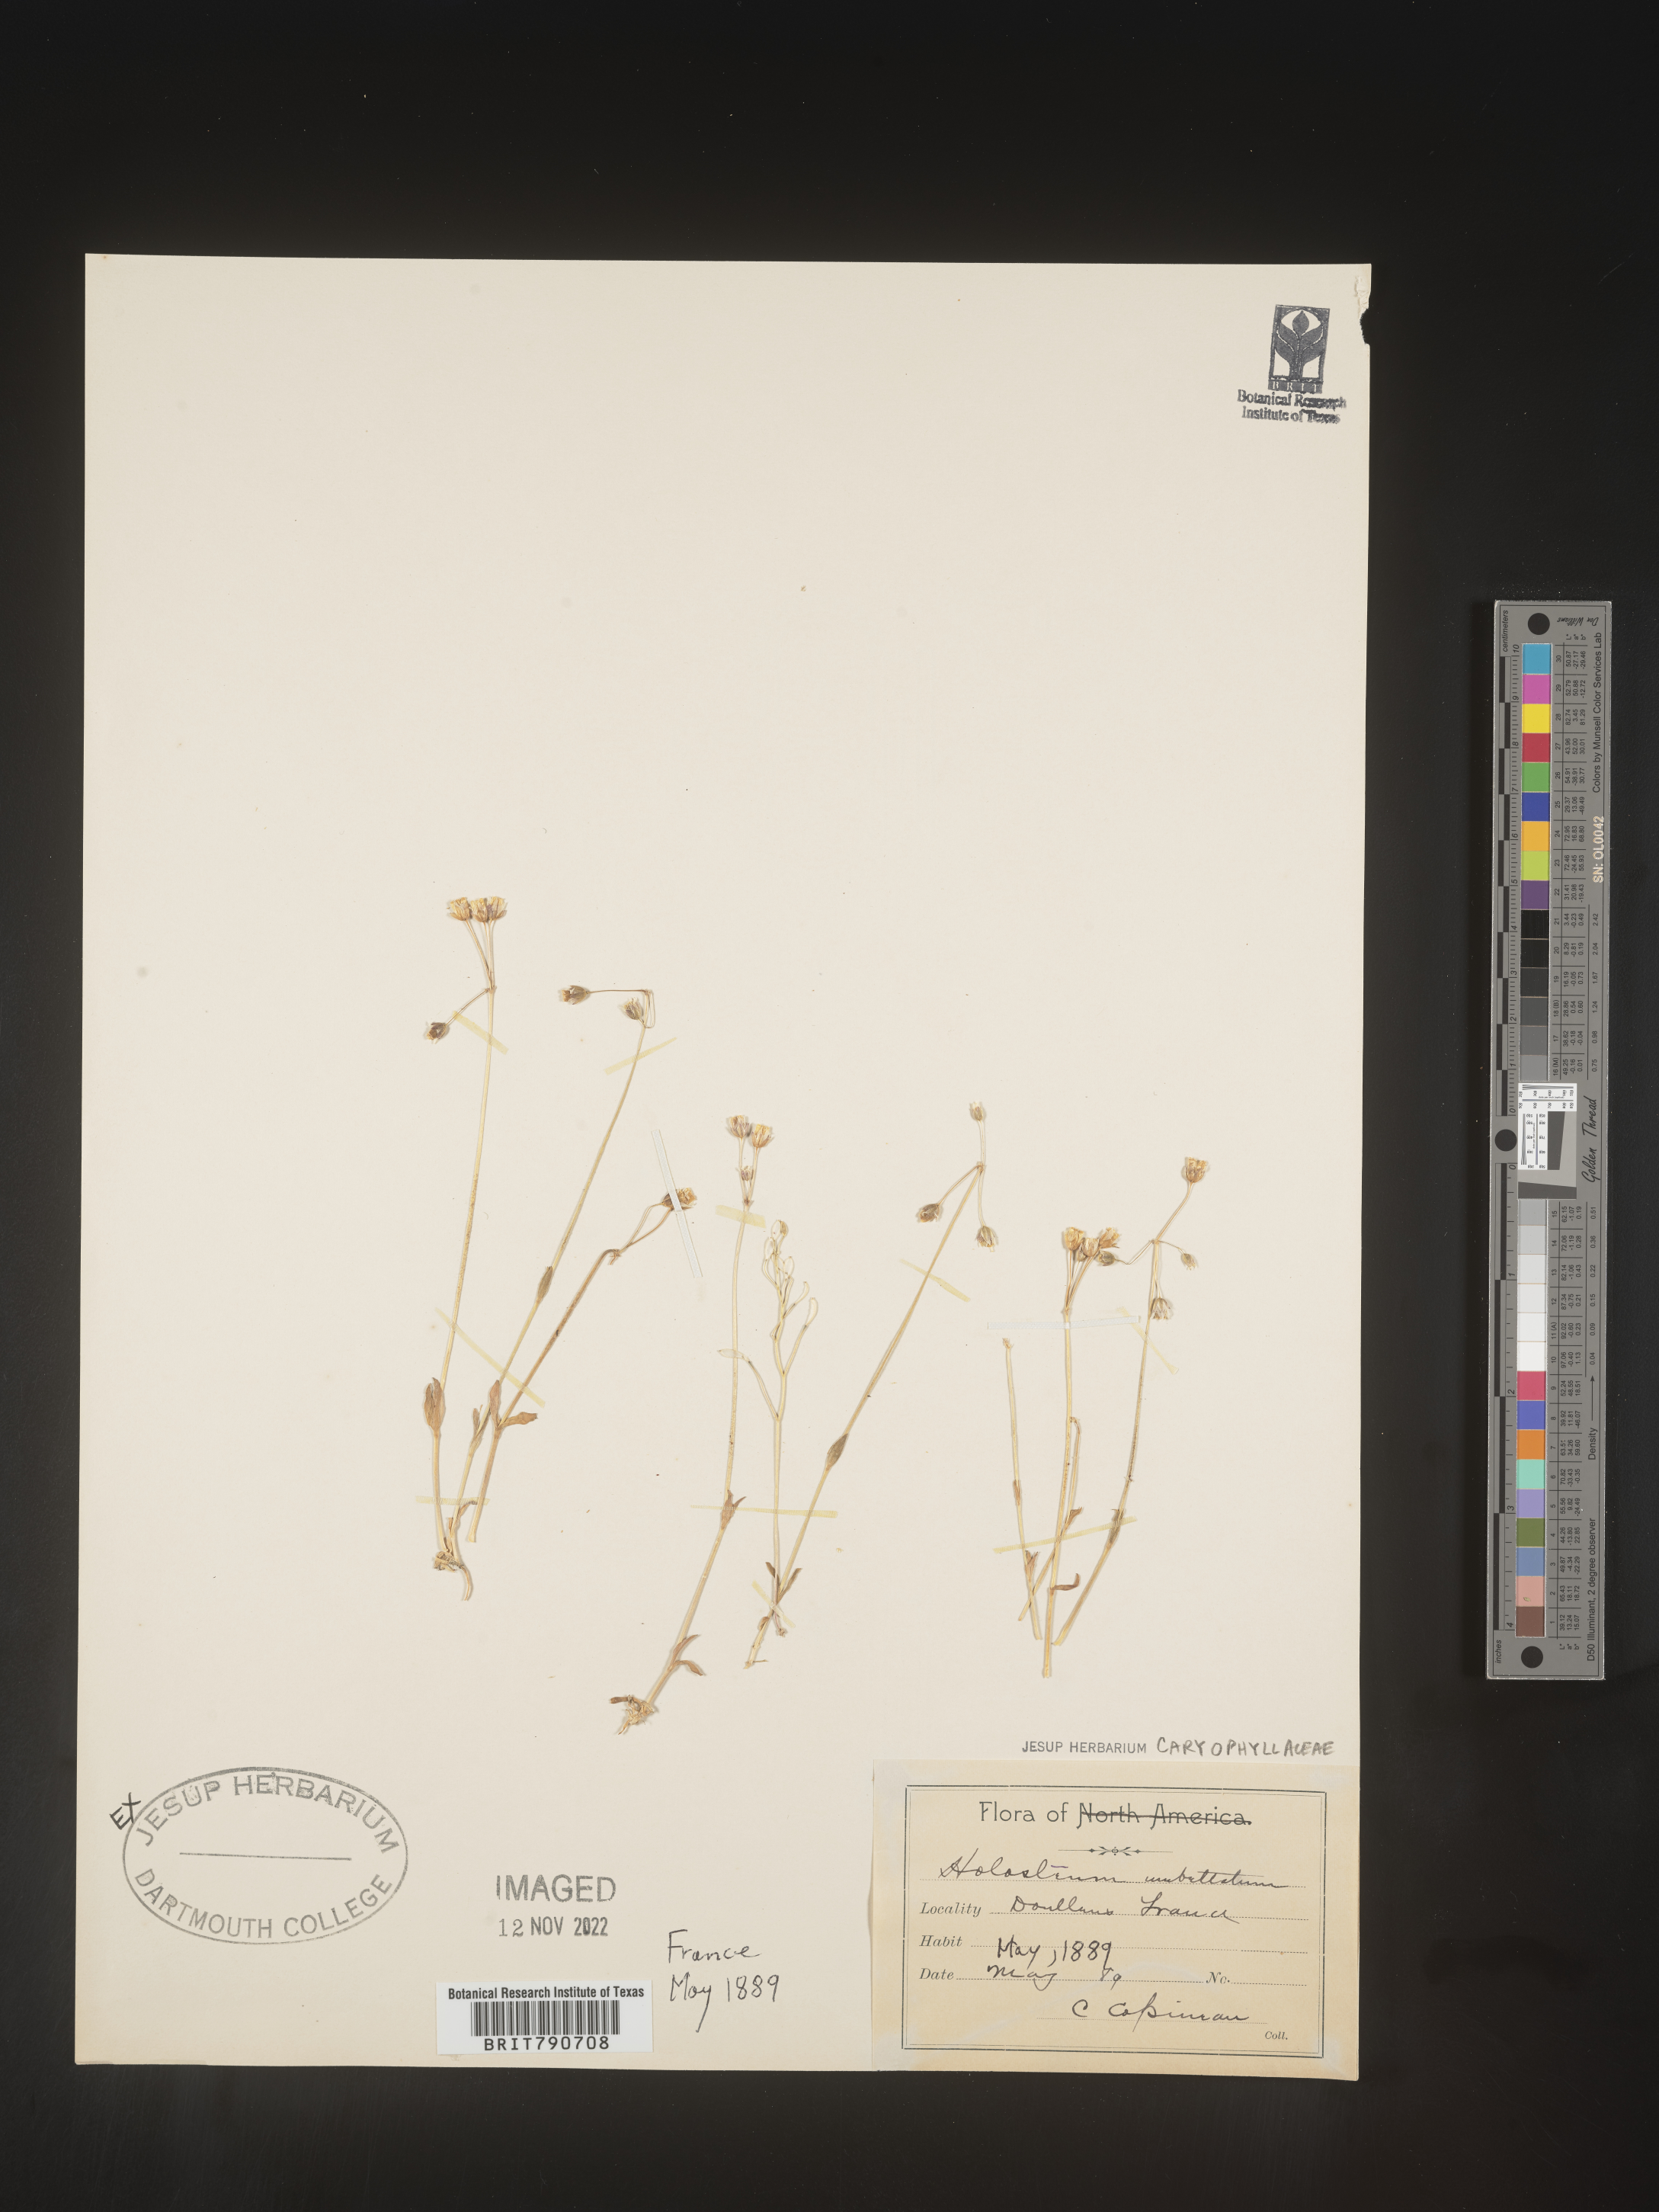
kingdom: Plantae
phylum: Tracheophyta
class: Magnoliopsida
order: Caryophyllales
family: Caryophyllaceae
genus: Holosteum
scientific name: Holosteum
